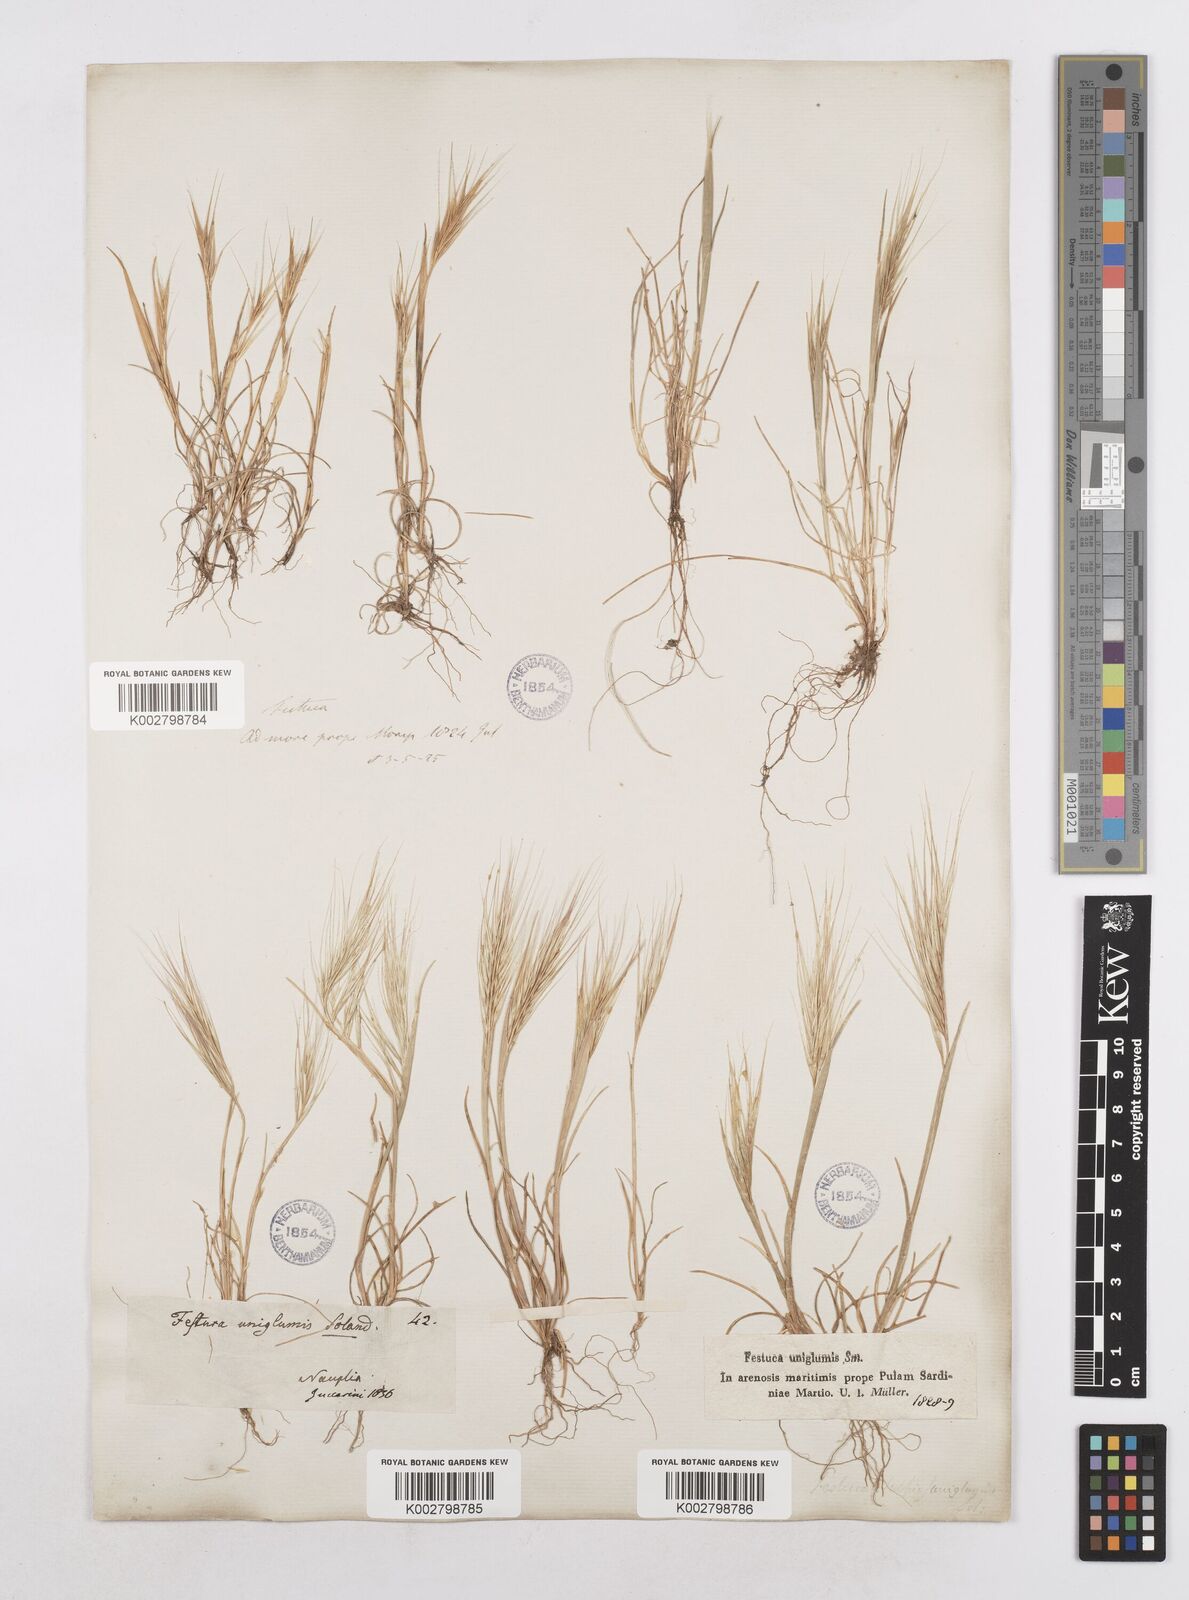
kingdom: Plantae
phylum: Tracheophyta
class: Liliopsida
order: Poales
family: Poaceae
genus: Festuca
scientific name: Festuca fasciculata
